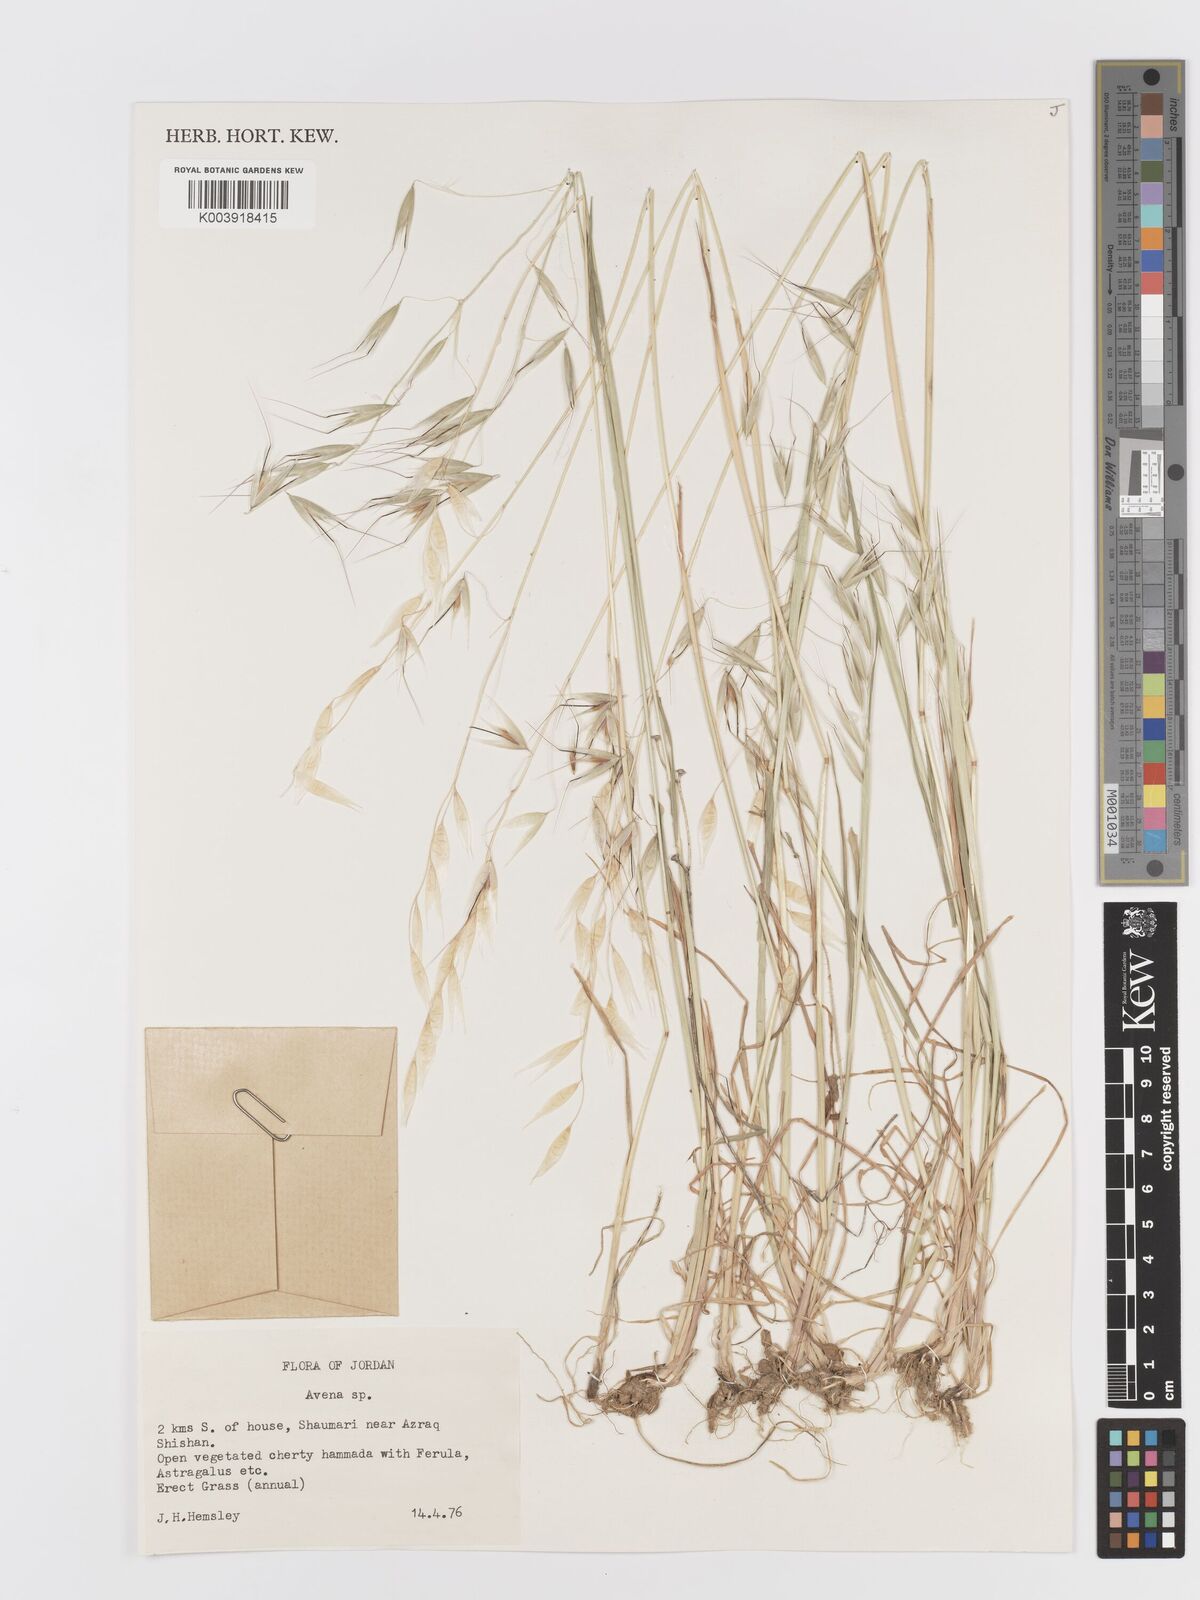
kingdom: Plantae
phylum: Tracheophyta
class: Liliopsida
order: Poales
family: Poaceae
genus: Avena
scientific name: Avena
